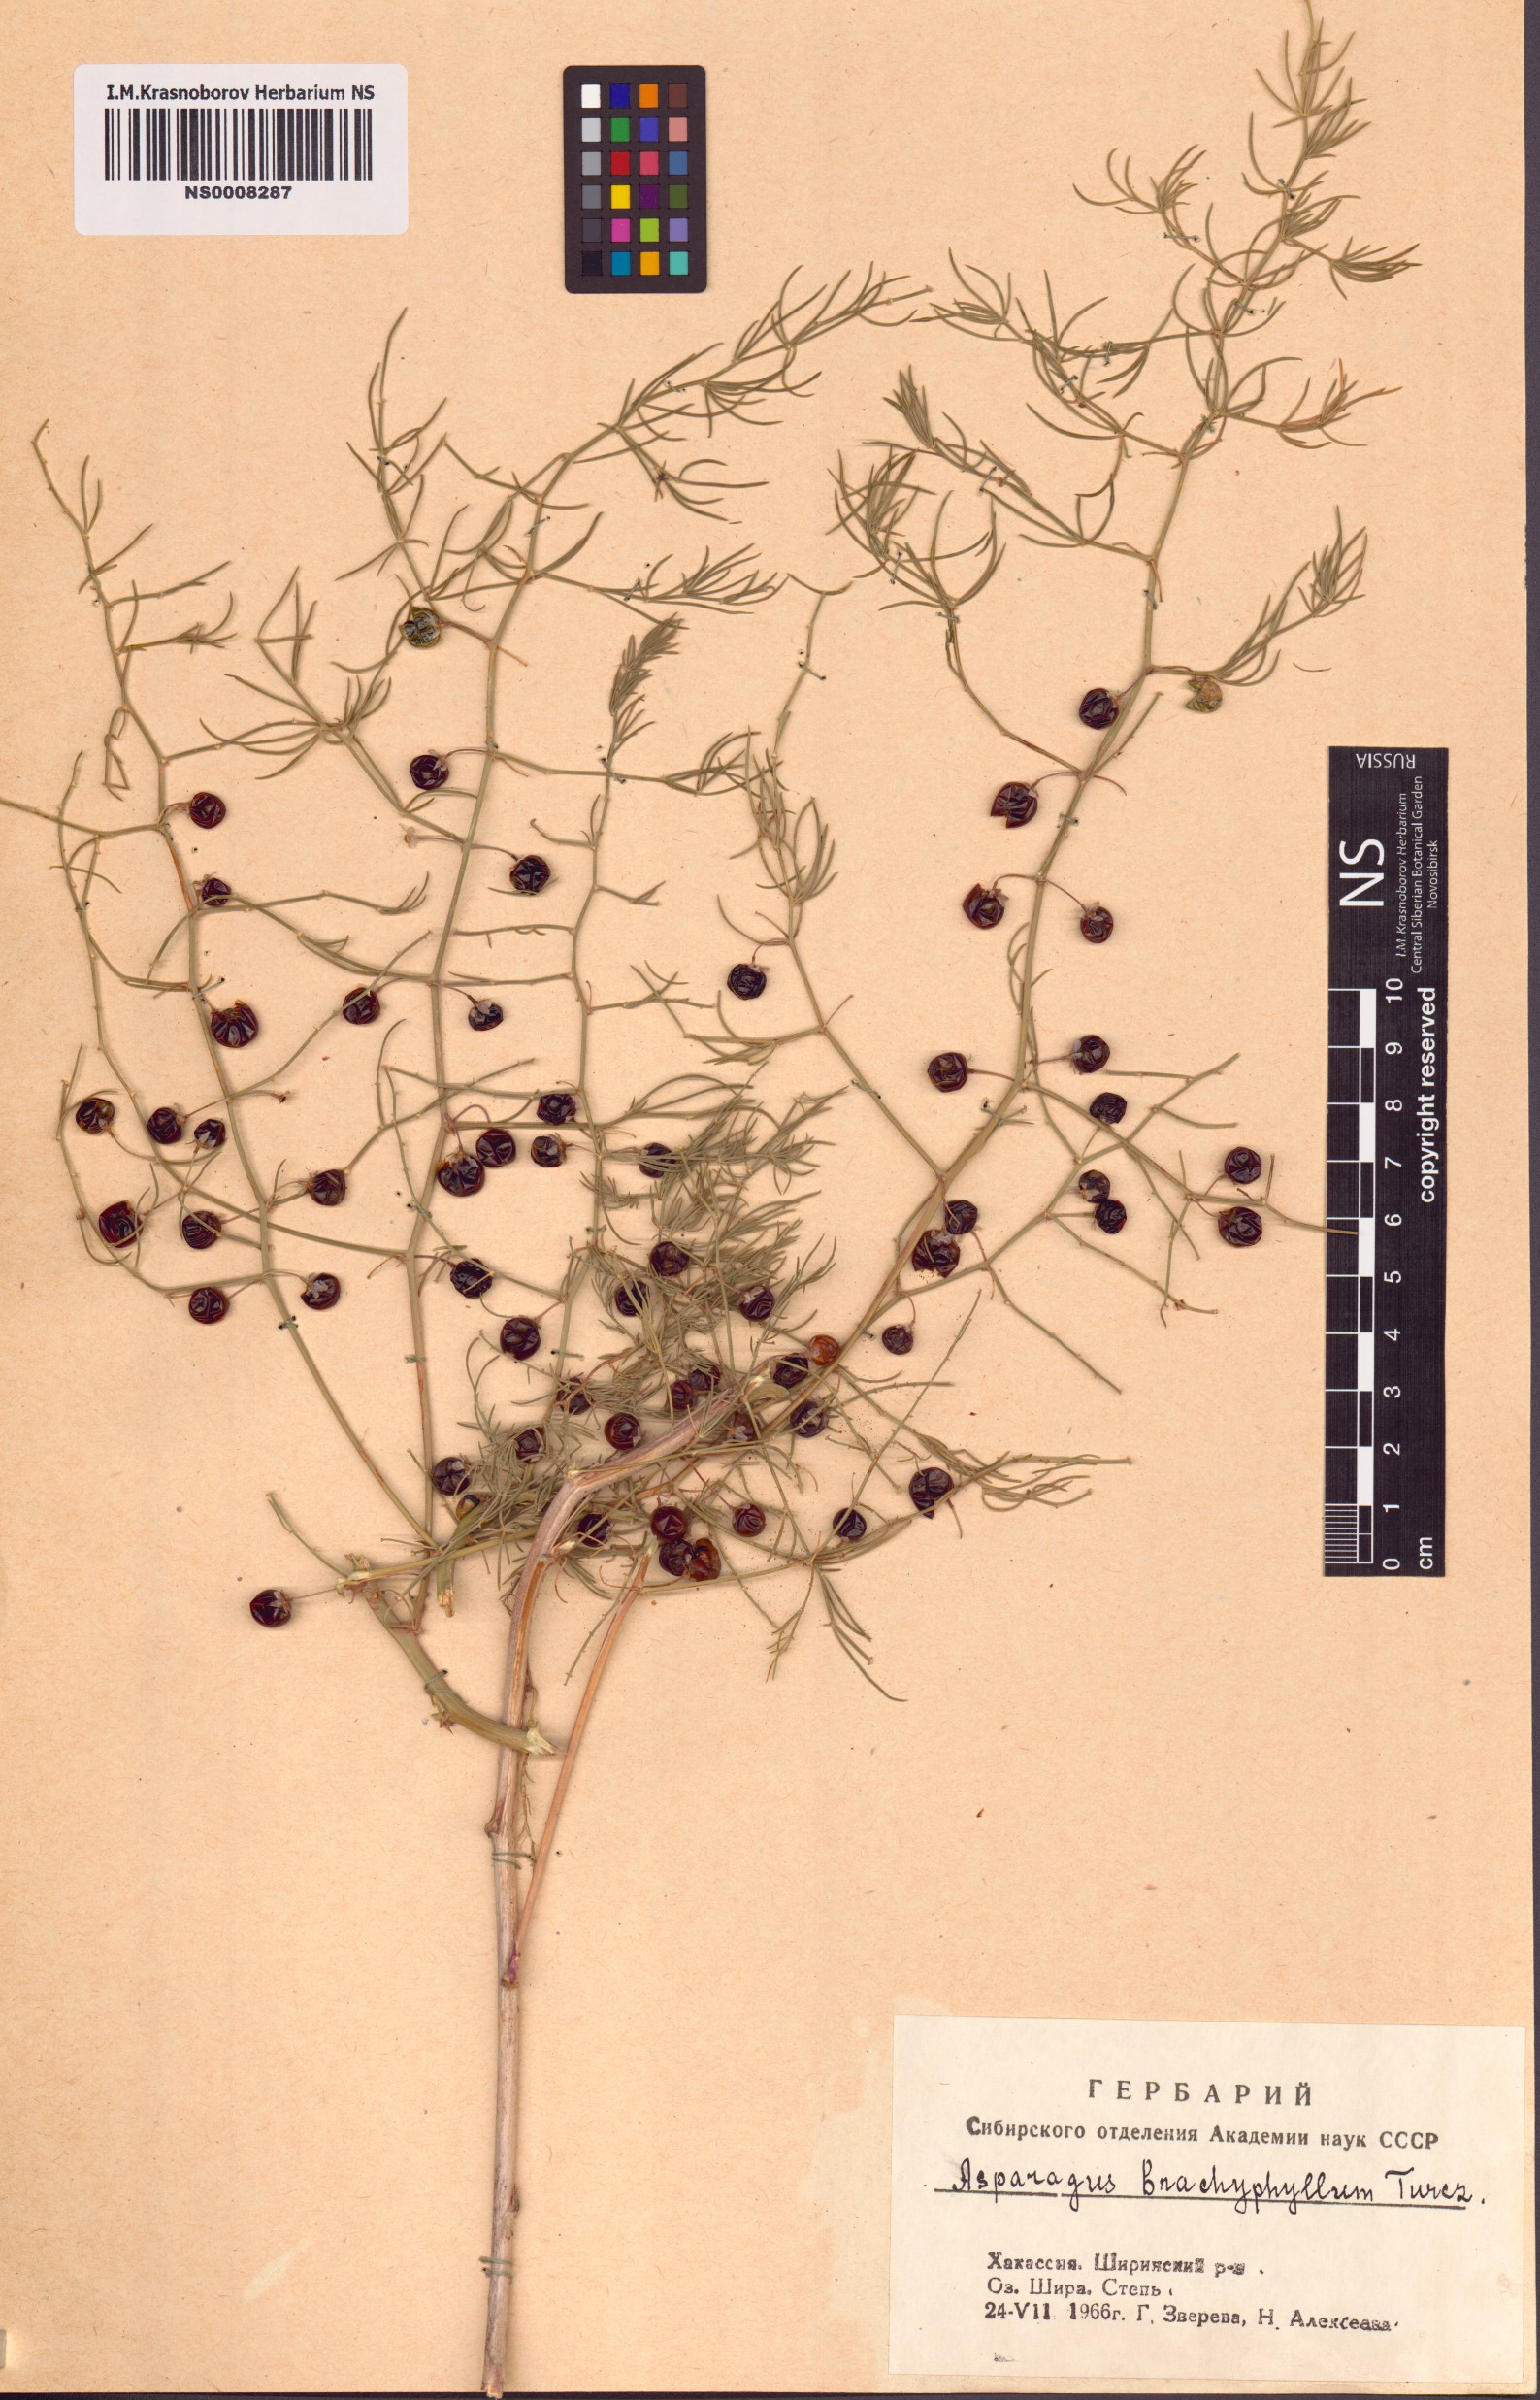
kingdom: Plantae
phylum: Tracheophyta
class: Liliopsida
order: Asparagales
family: Asparagaceae
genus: Asparagus
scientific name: Asparagus brachyphyllus
